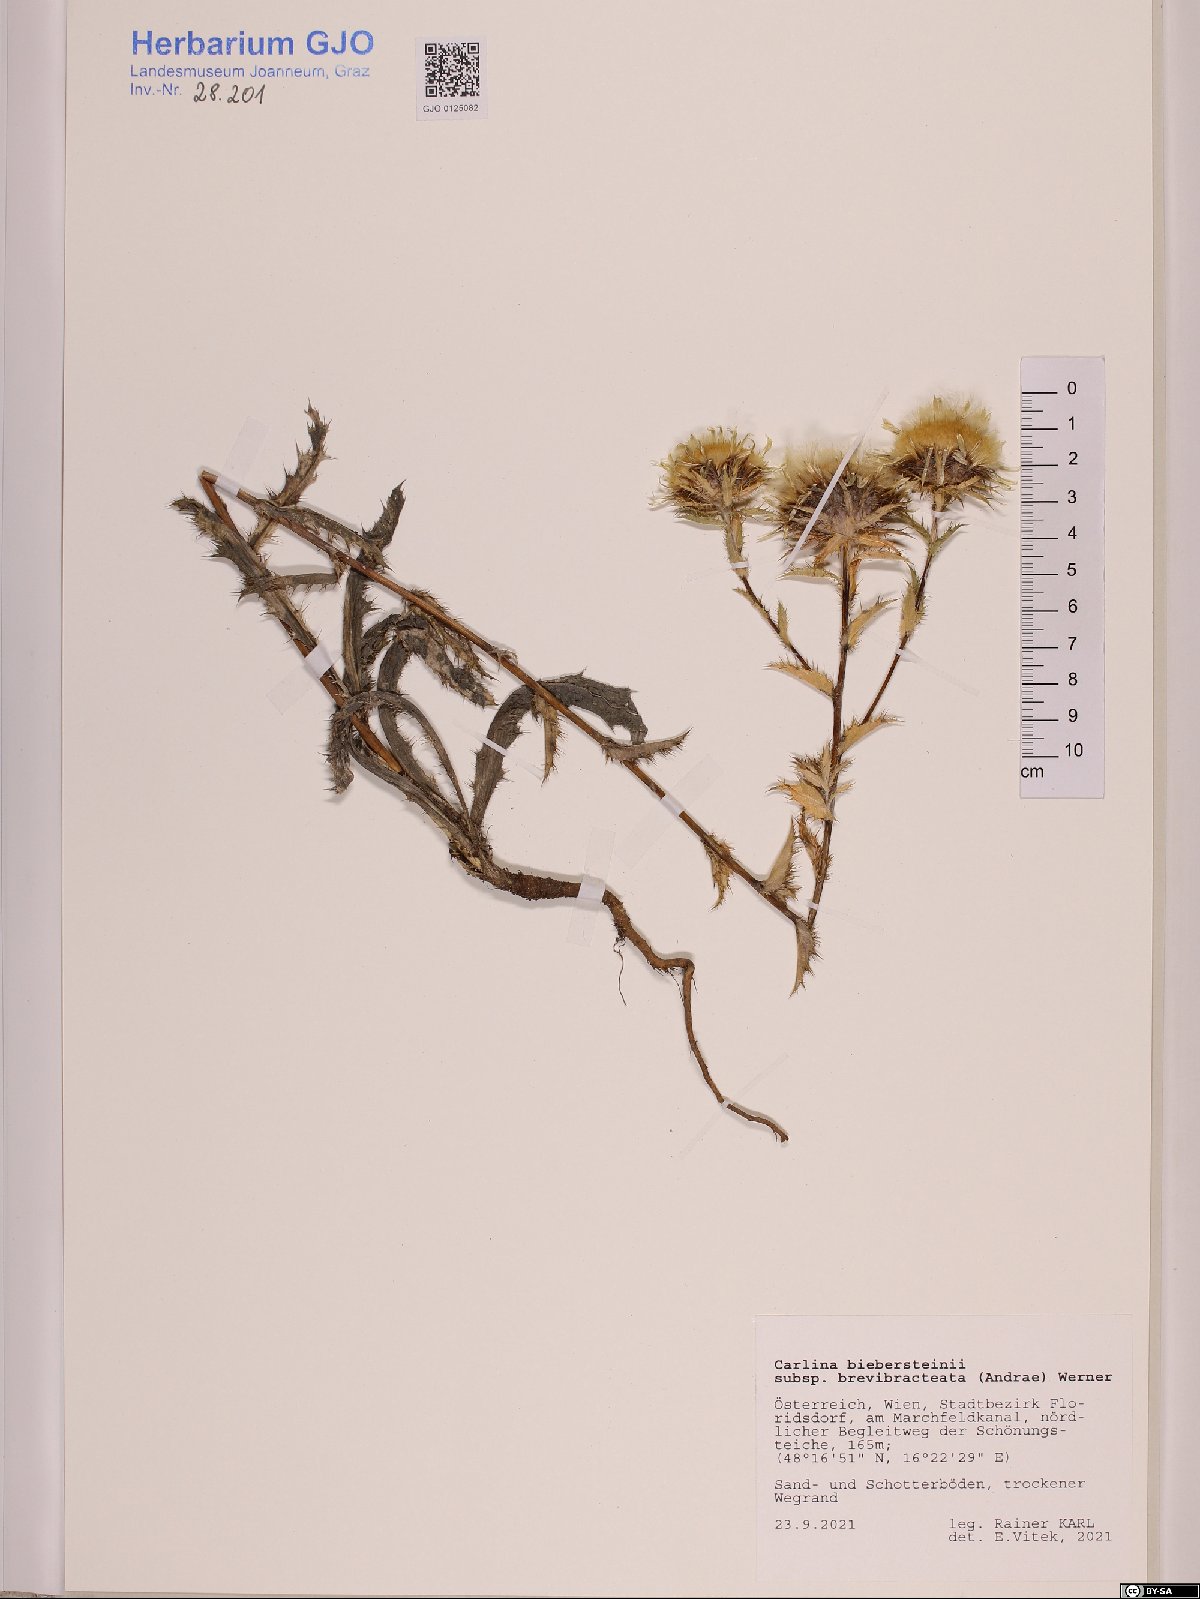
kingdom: Plantae
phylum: Tracheophyta
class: Magnoliopsida
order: Asterales
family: Asteraceae
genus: Carlina
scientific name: Carlina biebersteinii
